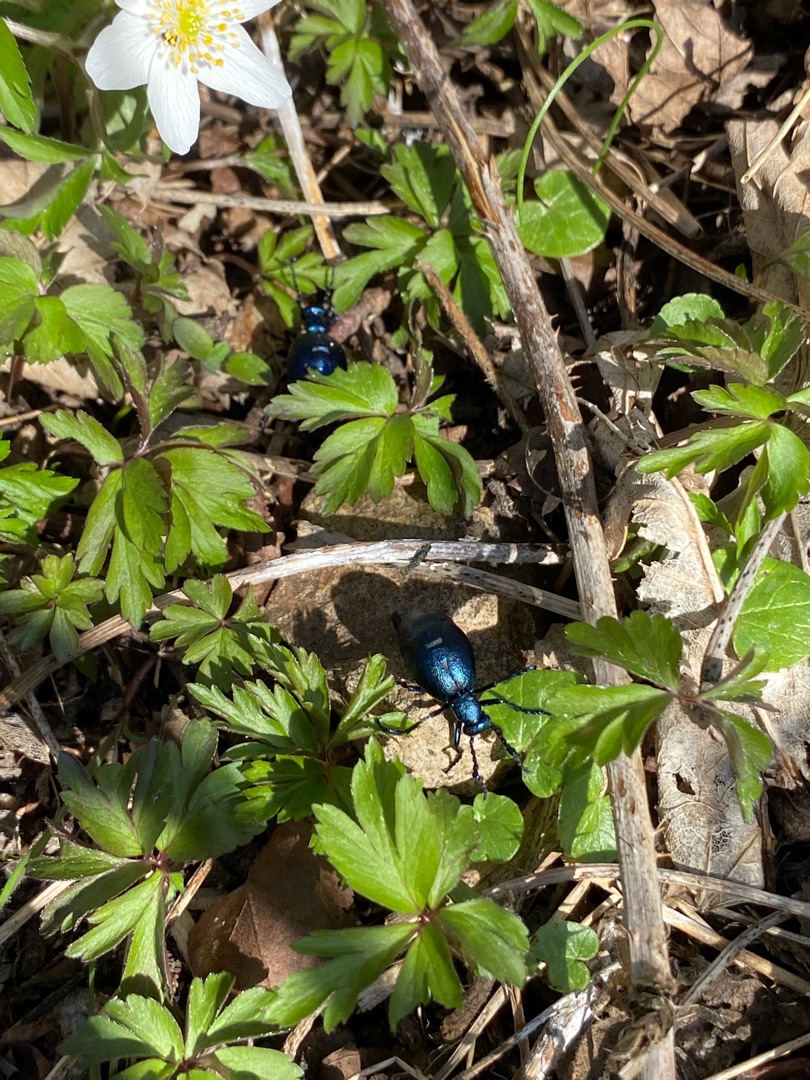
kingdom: Animalia
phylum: Arthropoda
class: Insecta
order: Coleoptera
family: Meloidae
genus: Meloe
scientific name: Meloe violaceus
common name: Blå oliebille
